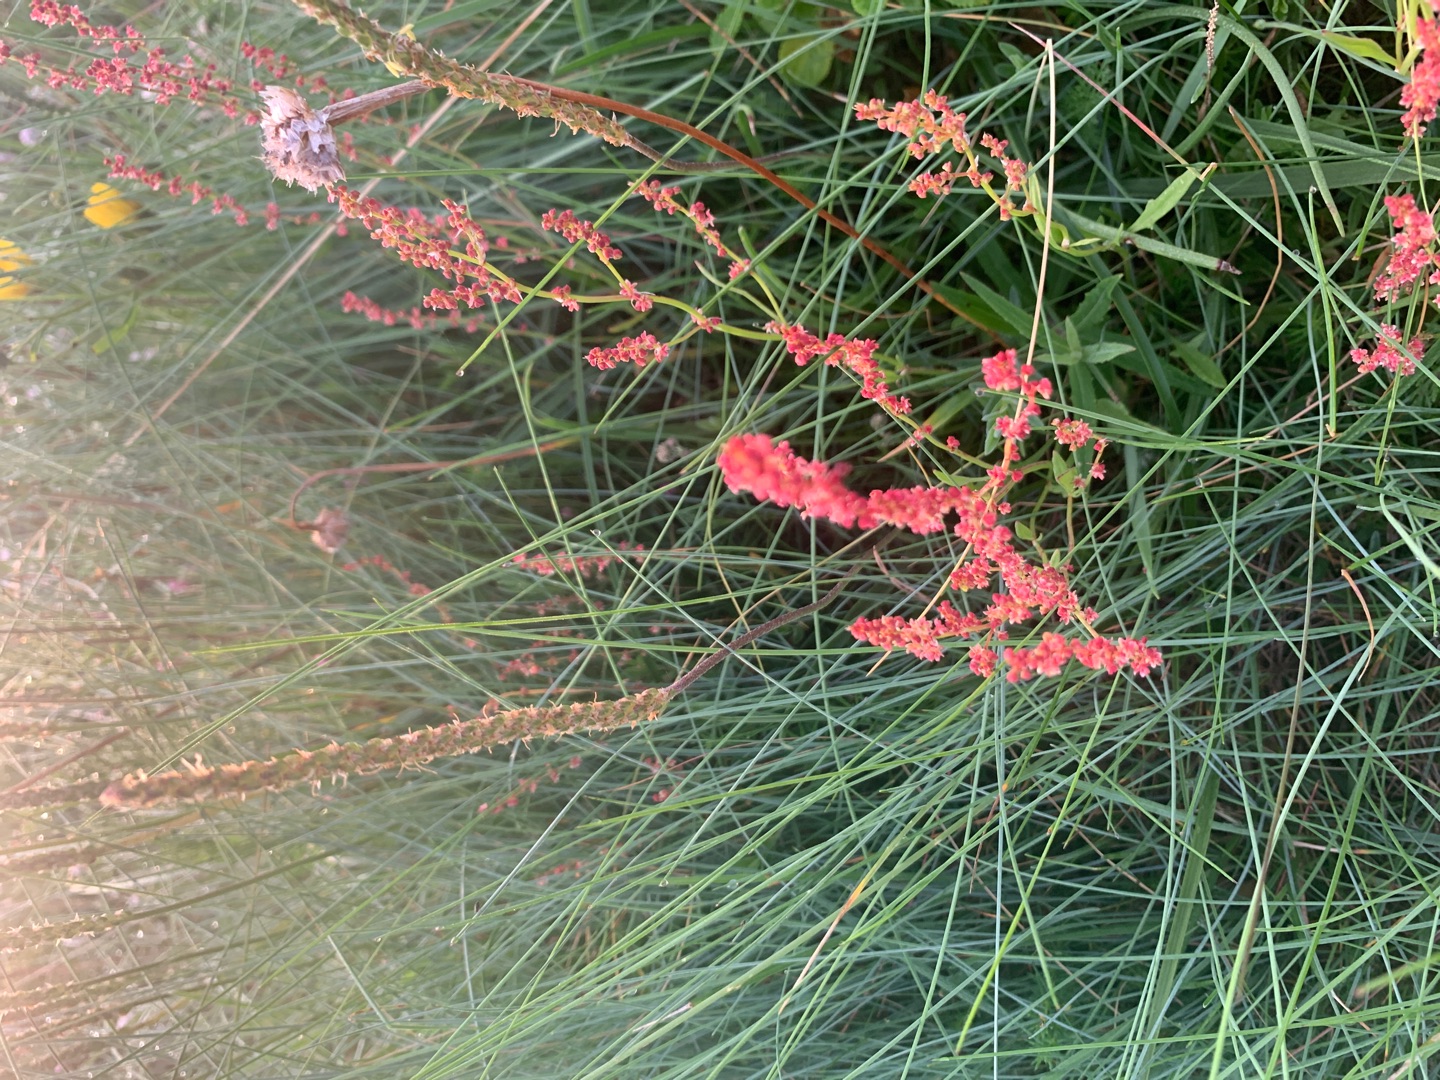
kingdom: Plantae
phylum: Tracheophyta
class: Magnoliopsida
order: Caryophyllales
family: Polygonaceae
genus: Rumex
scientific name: Rumex acetosella
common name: Rødknæ
